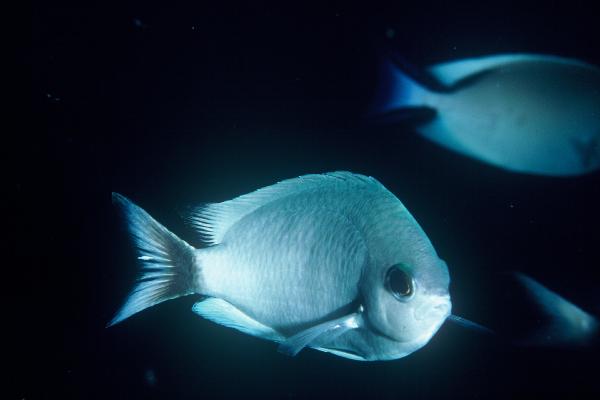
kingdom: Animalia
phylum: Chordata
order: Perciformes
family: Pomacentridae
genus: Chromis
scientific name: Chromis pelloura
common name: Duskytail chromis
